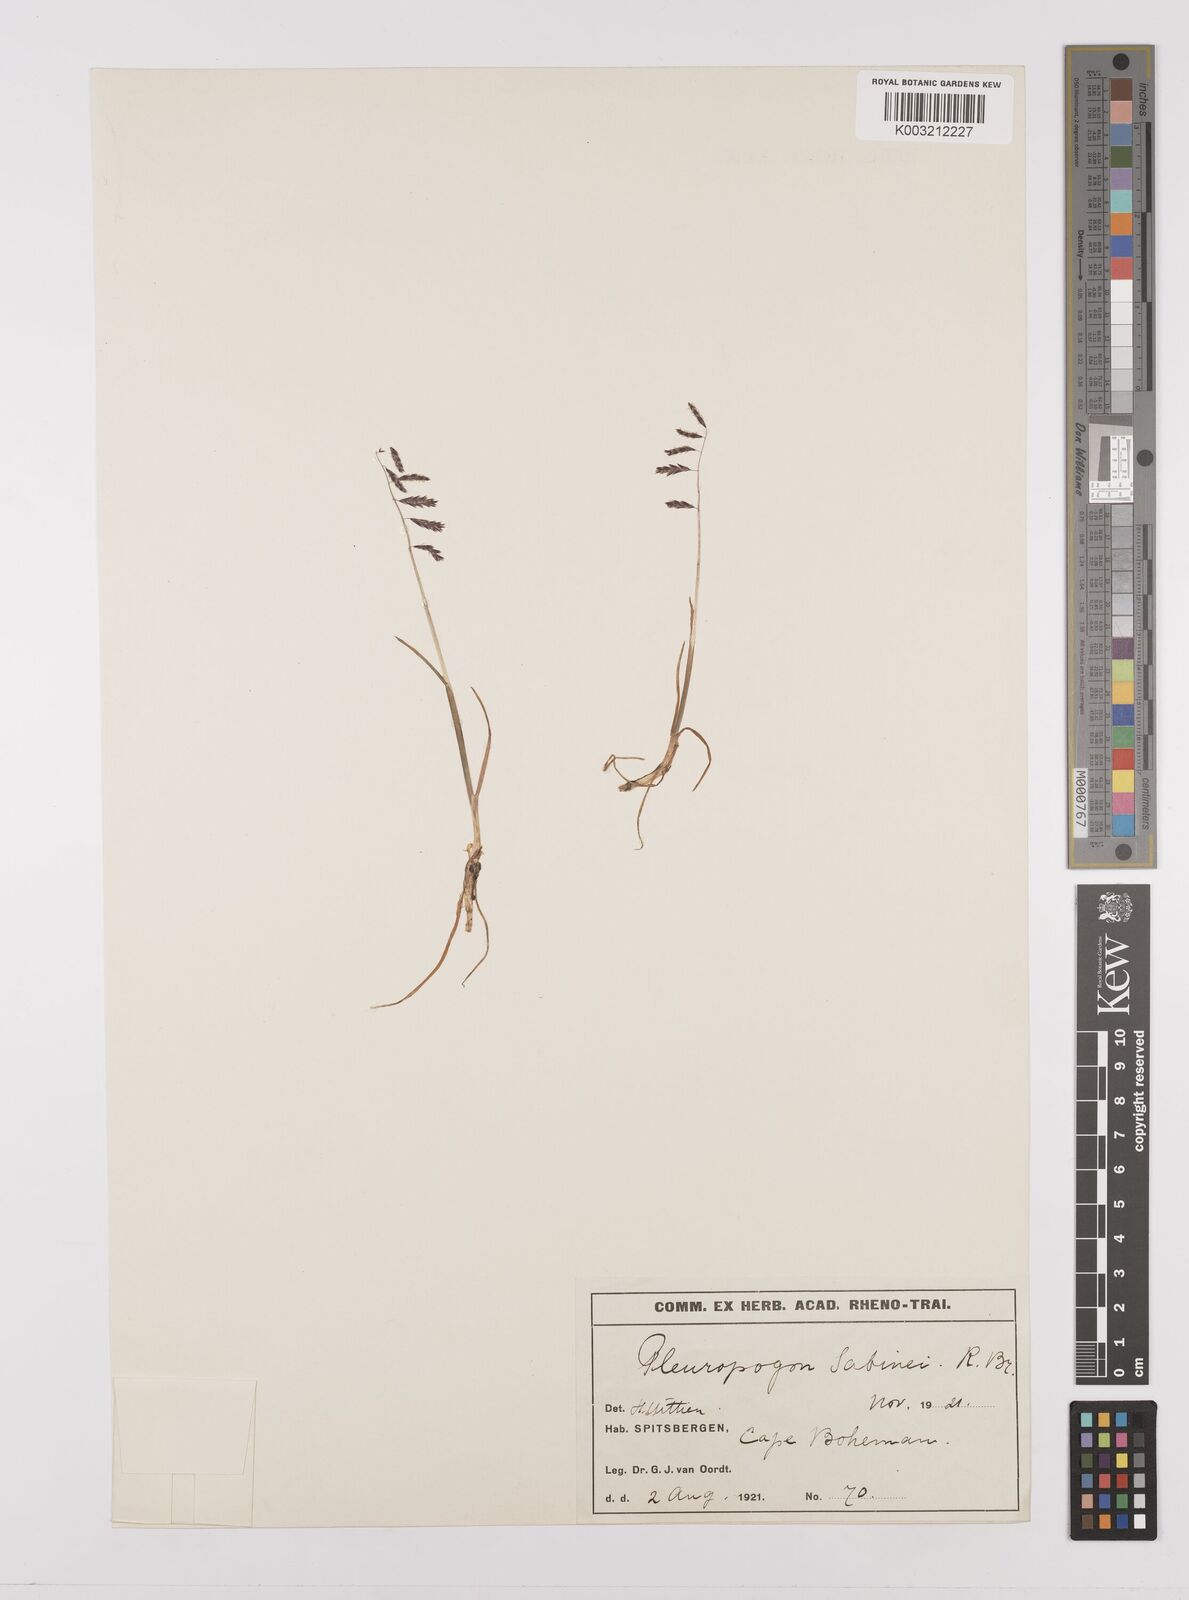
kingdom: Plantae
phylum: Tracheophyta
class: Liliopsida
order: Poales
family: Poaceae
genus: Pleuropogon
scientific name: Pleuropogon sabinei
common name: Sabine's false semaphoregrass
